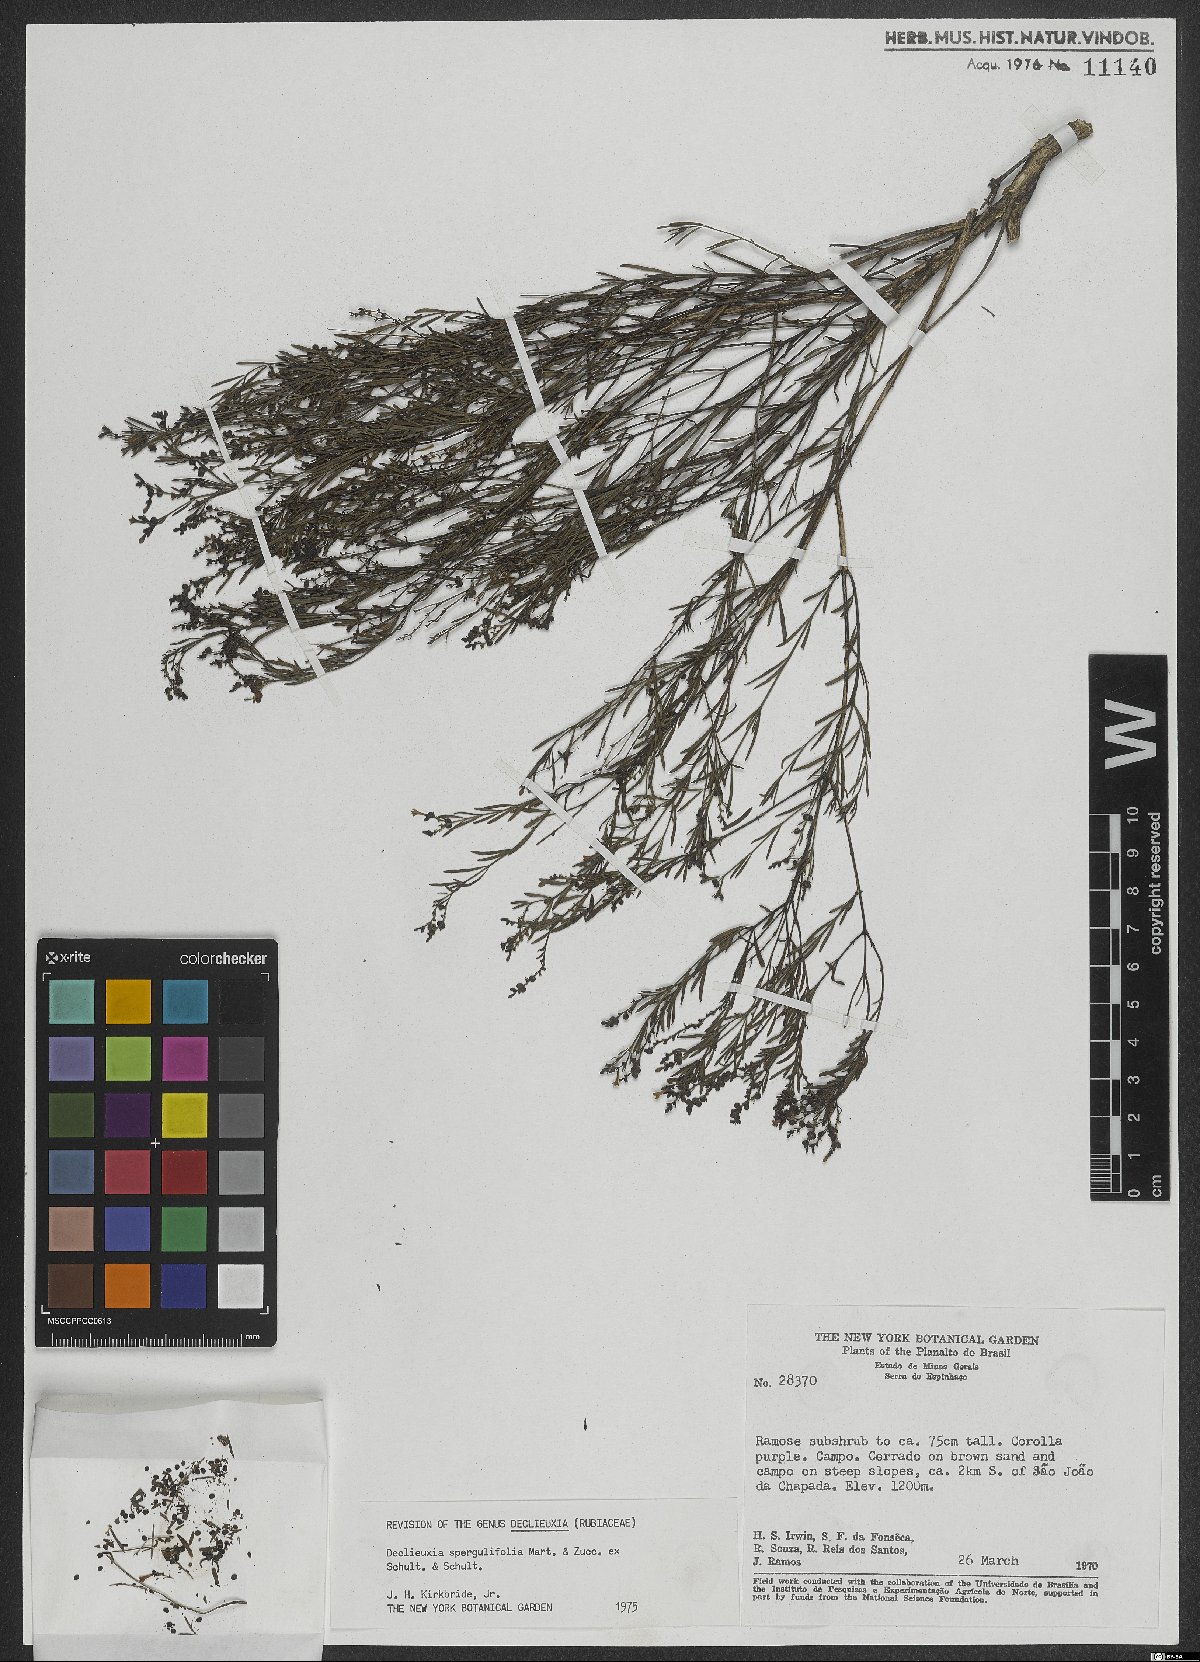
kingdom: Plantae
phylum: Tracheophyta
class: Magnoliopsida
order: Gentianales
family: Rubiaceae
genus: Declieuxia
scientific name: Declieuxia spergulifolia
